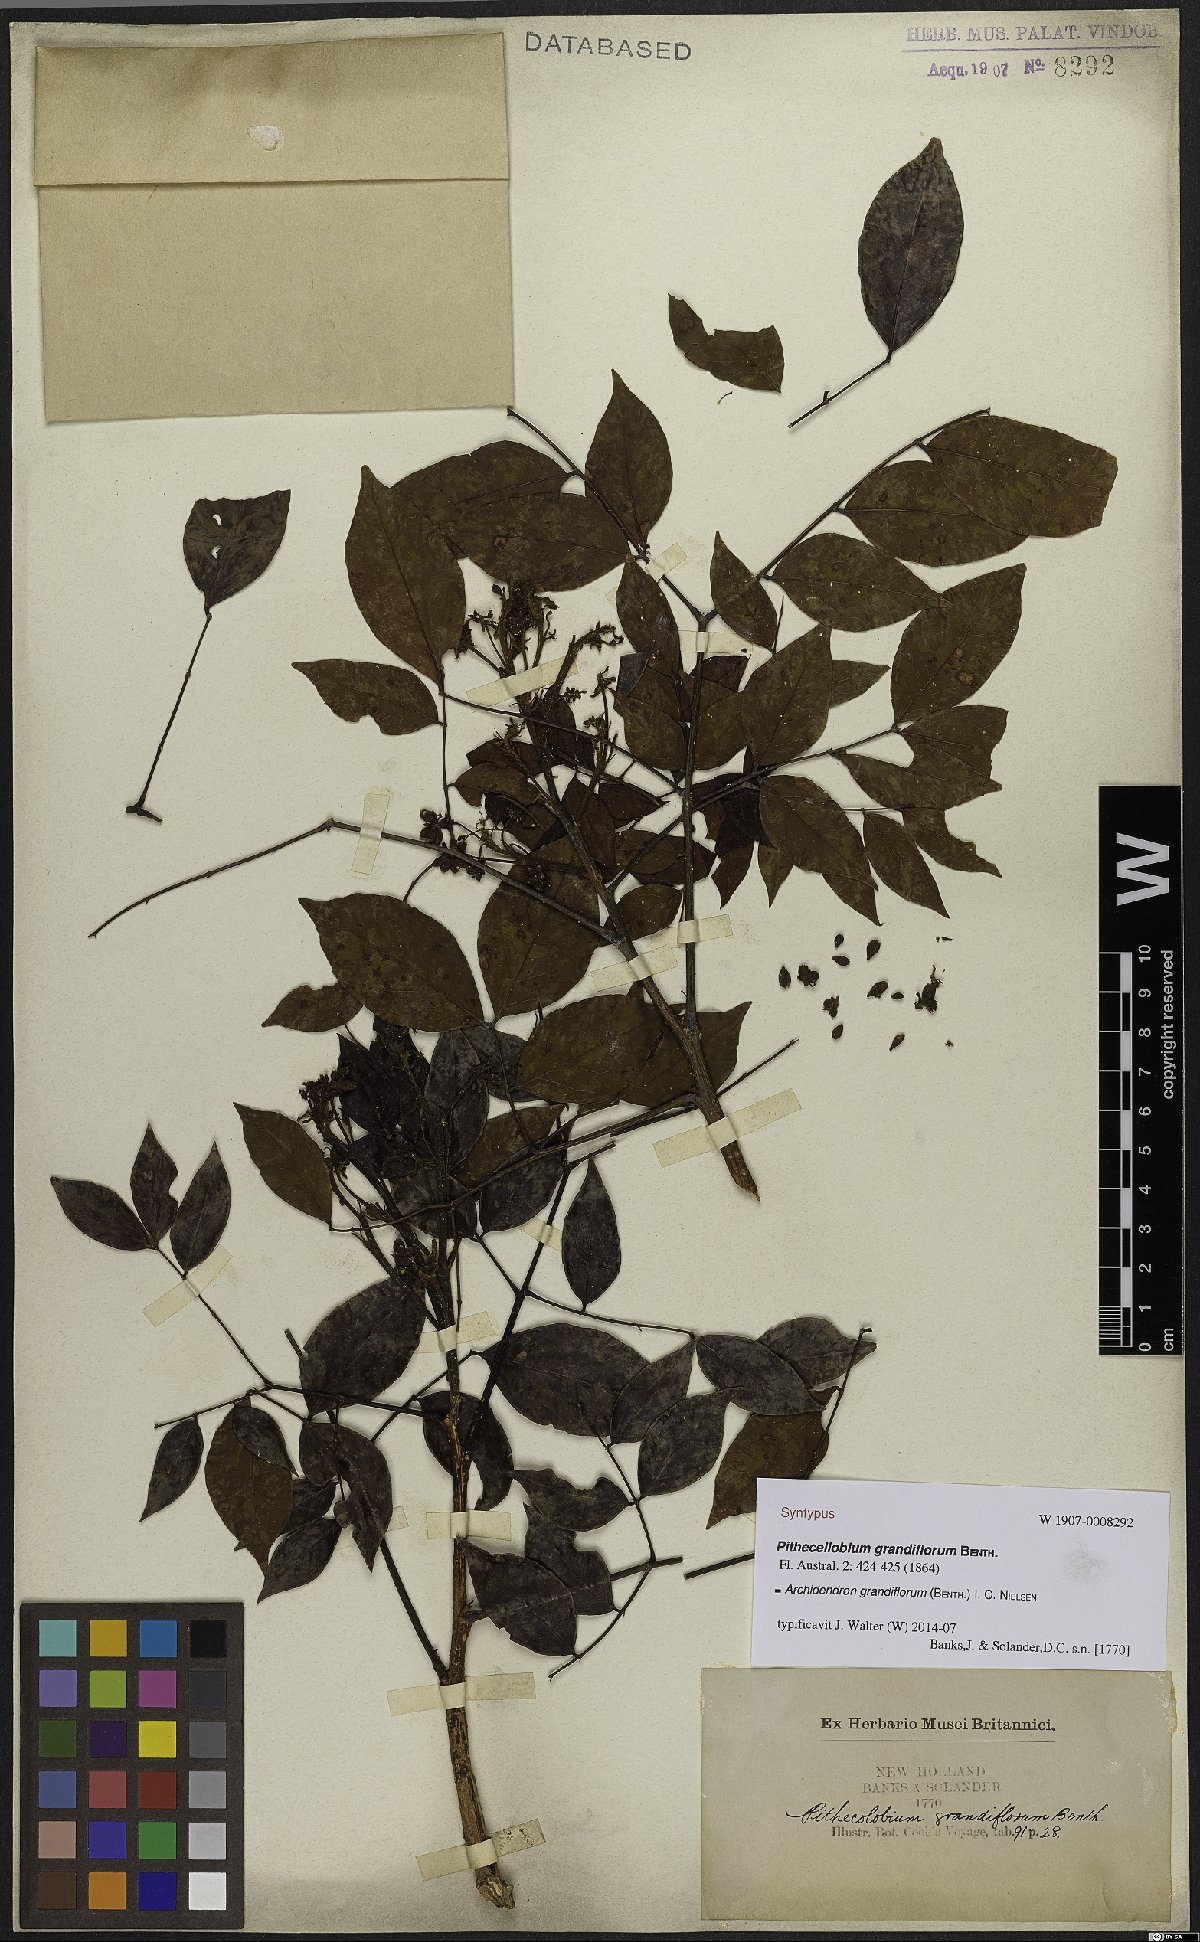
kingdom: Plantae
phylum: Tracheophyta
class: Magnoliopsida
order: Fabales
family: Fabaceae
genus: Archidendron
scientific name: Archidendron grandiflorum
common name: Tulip siris
